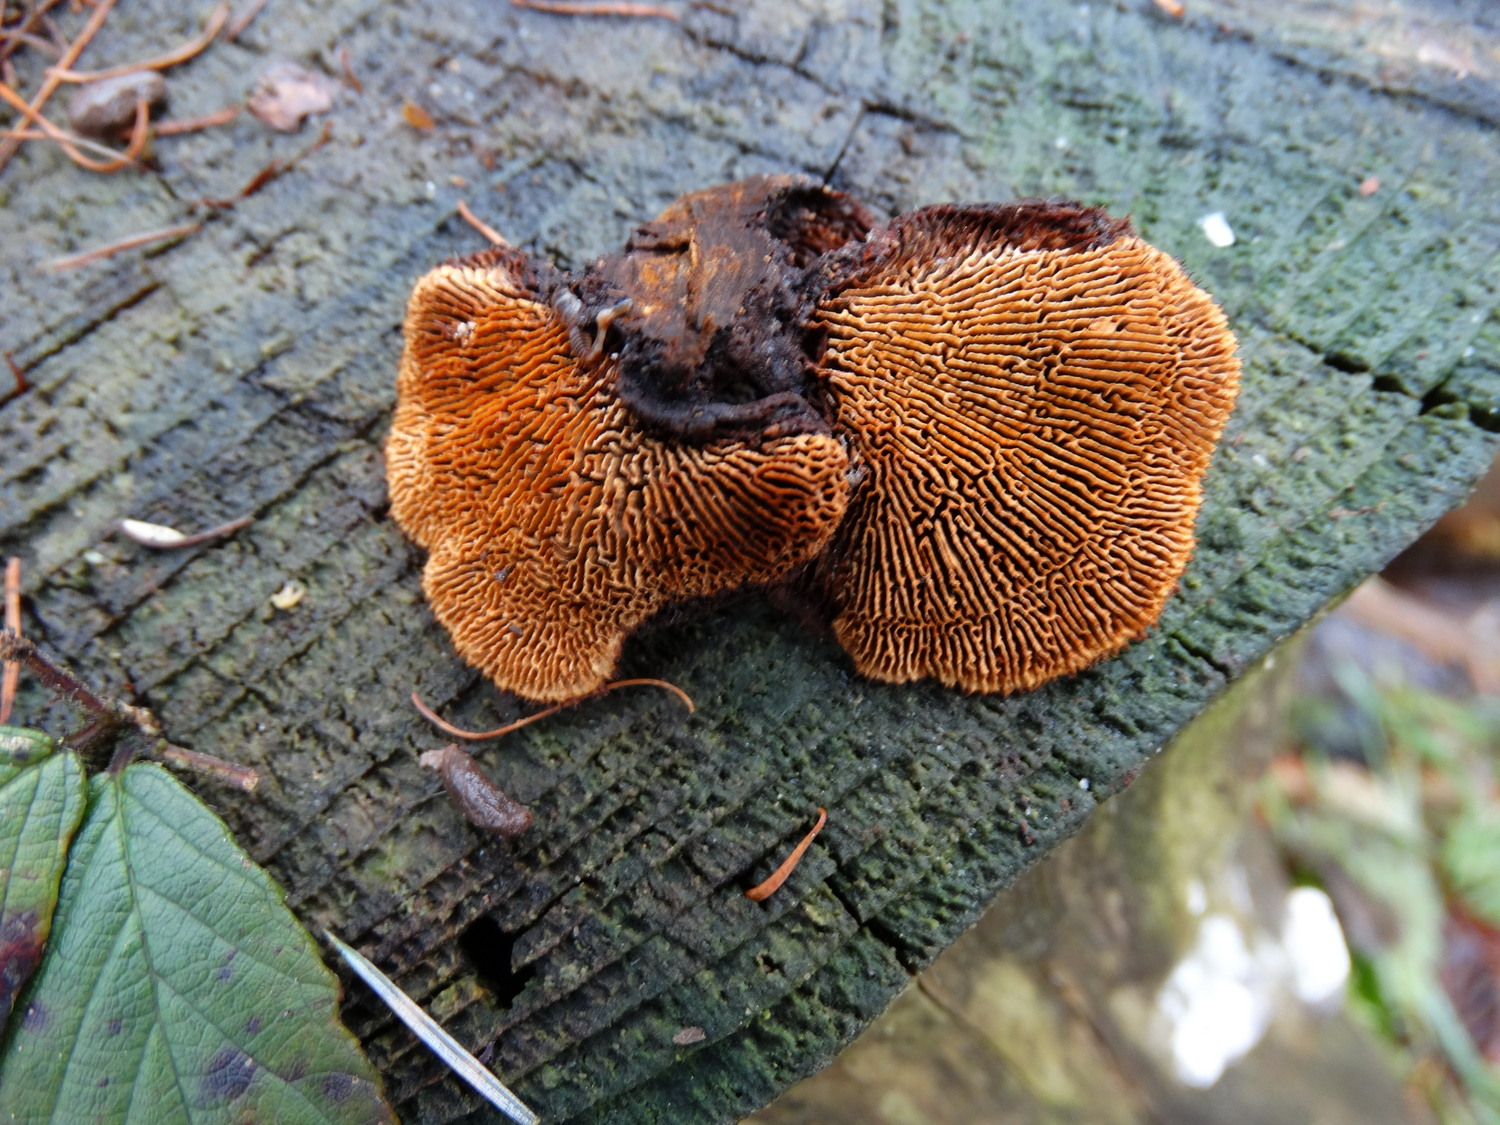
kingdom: Fungi
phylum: Basidiomycota
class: Agaricomycetes
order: Gloeophyllales
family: Gloeophyllaceae
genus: Gloeophyllum
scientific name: Gloeophyllum sepiarium
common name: fyrre-korkhat
